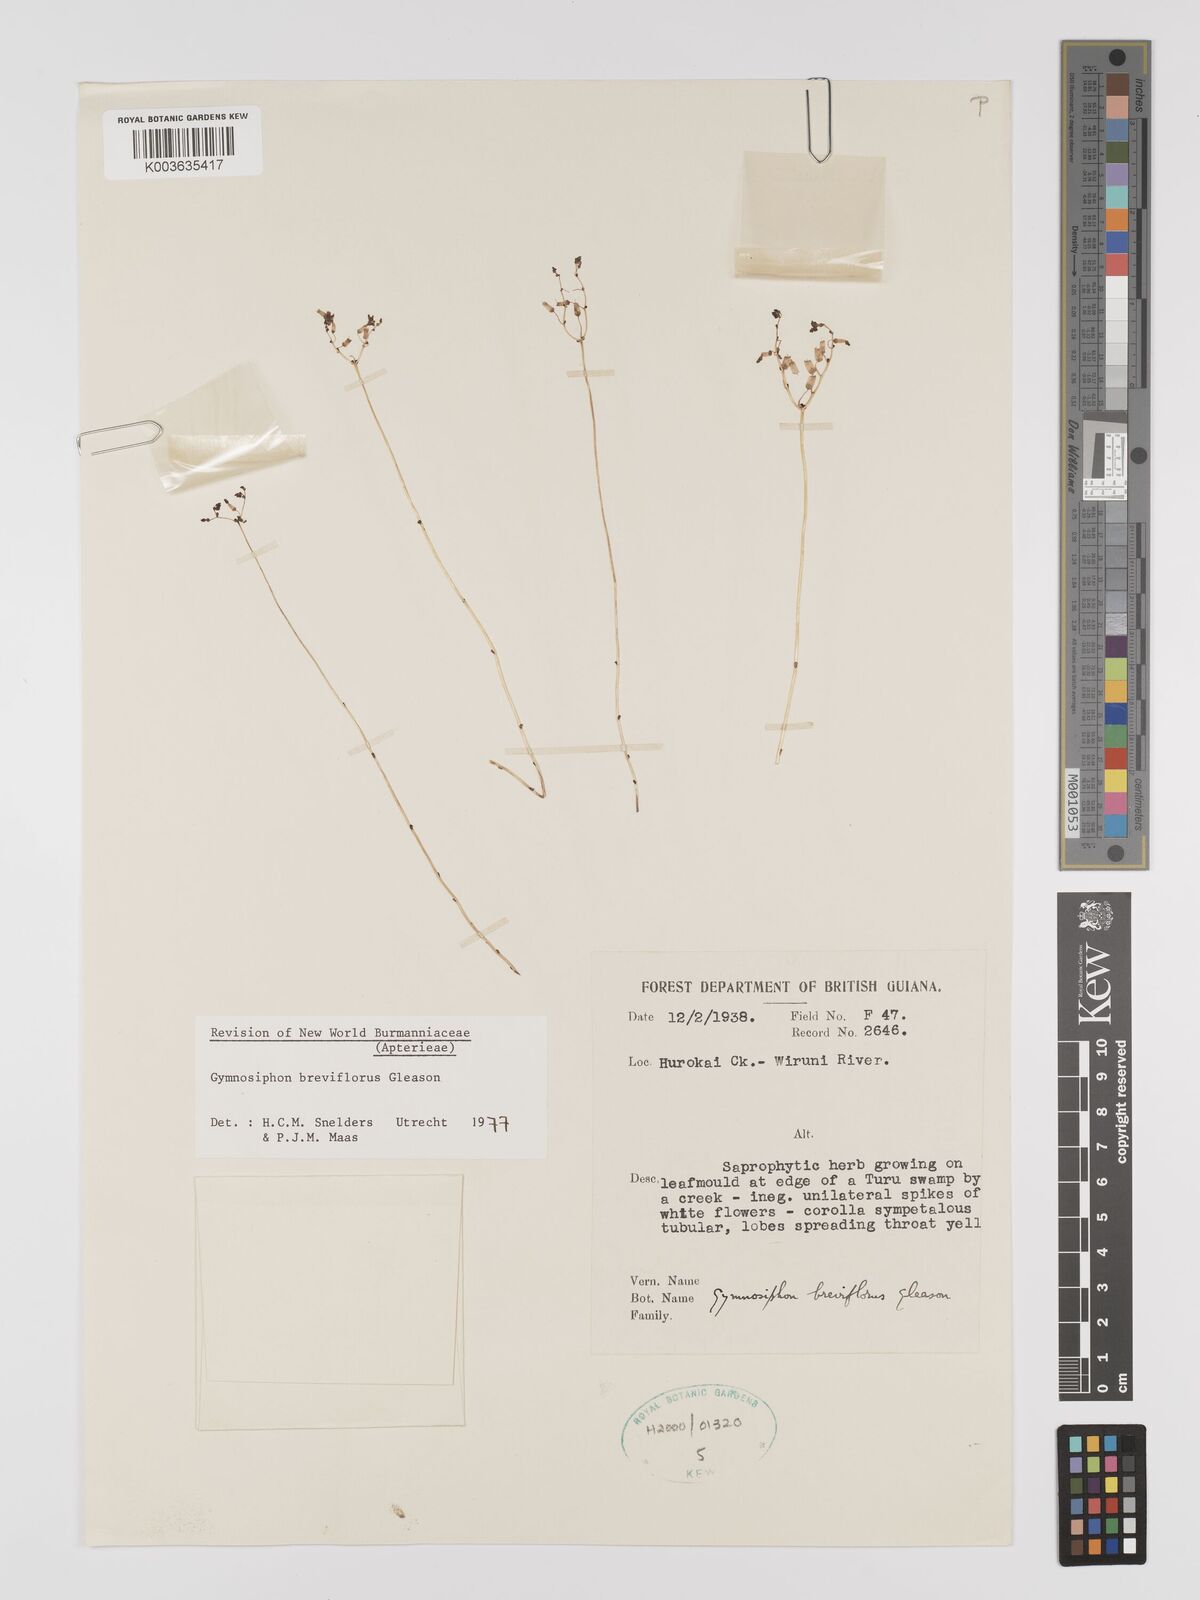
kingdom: Plantae
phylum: Tracheophyta
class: Liliopsida
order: Dioscoreales
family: Burmanniaceae
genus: Gymnosiphon
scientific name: Gymnosiphon breviflorus
